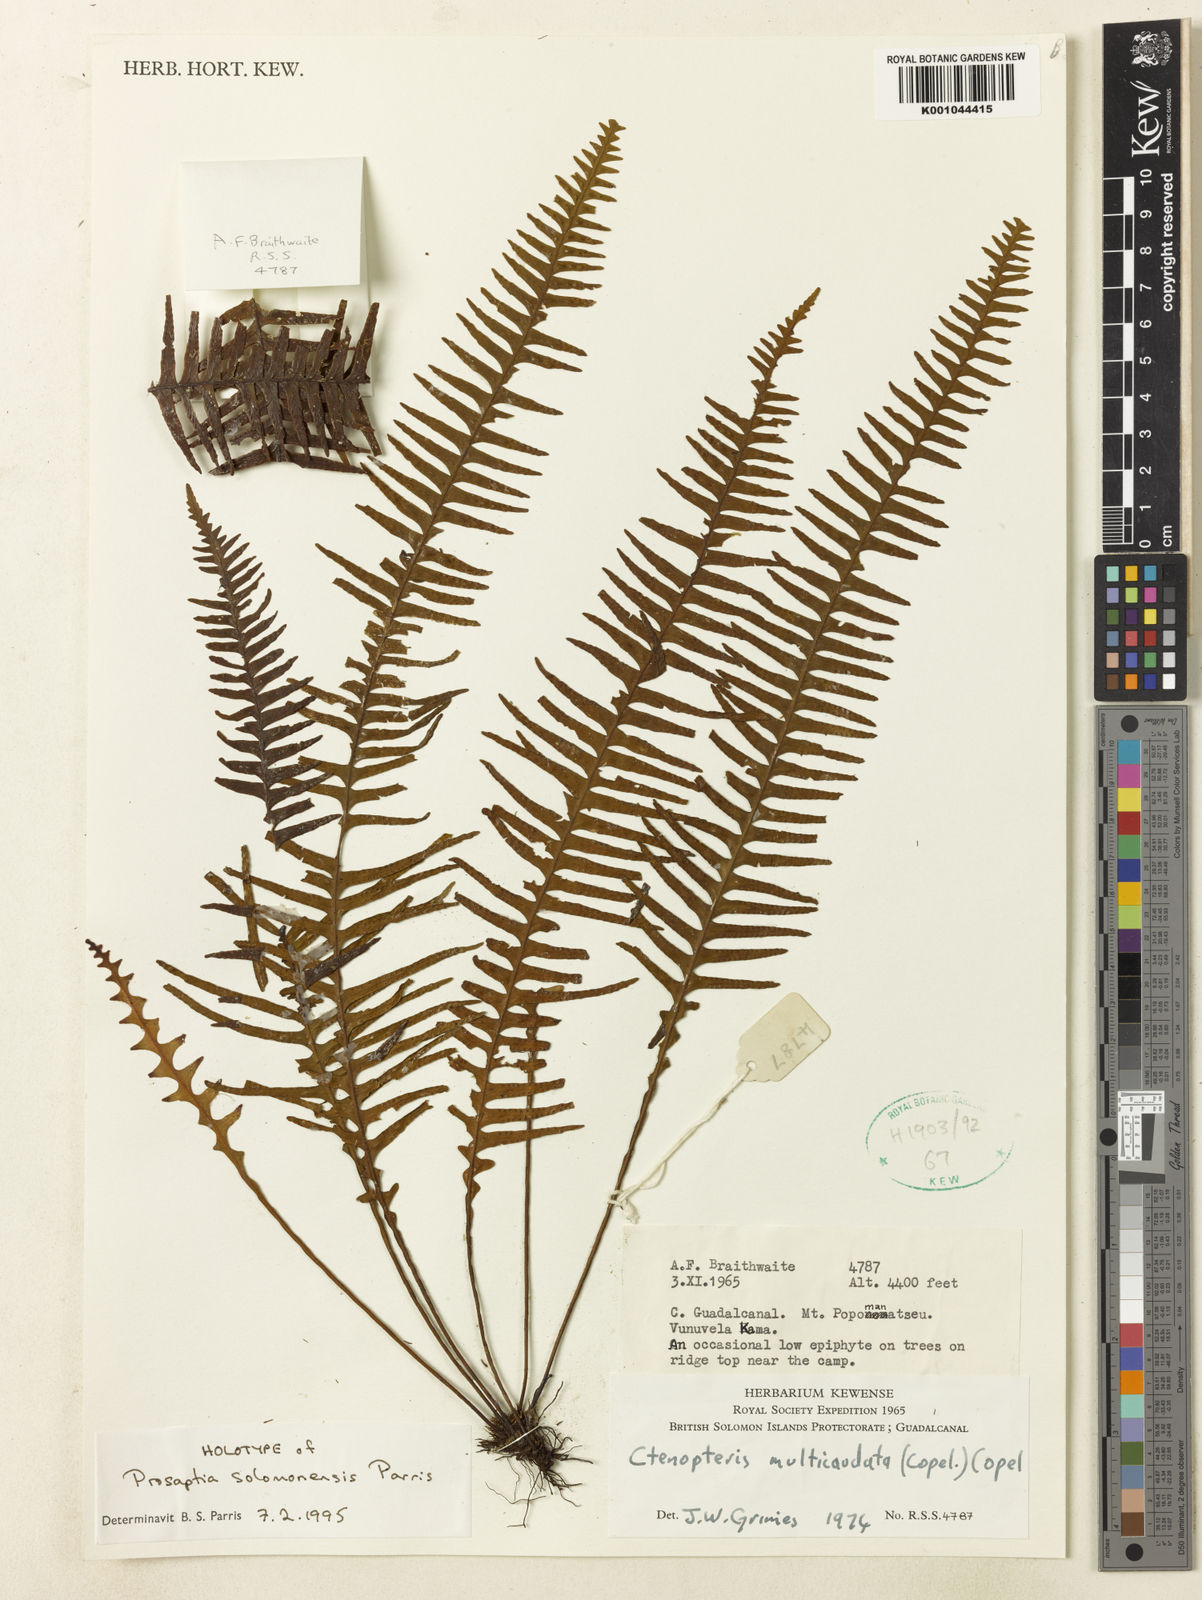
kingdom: Plantae
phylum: Tracheophyta
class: Polypodiopsida
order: Polypodiales
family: Polypodiaceae
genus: Prosaptia
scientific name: Prosaptia
